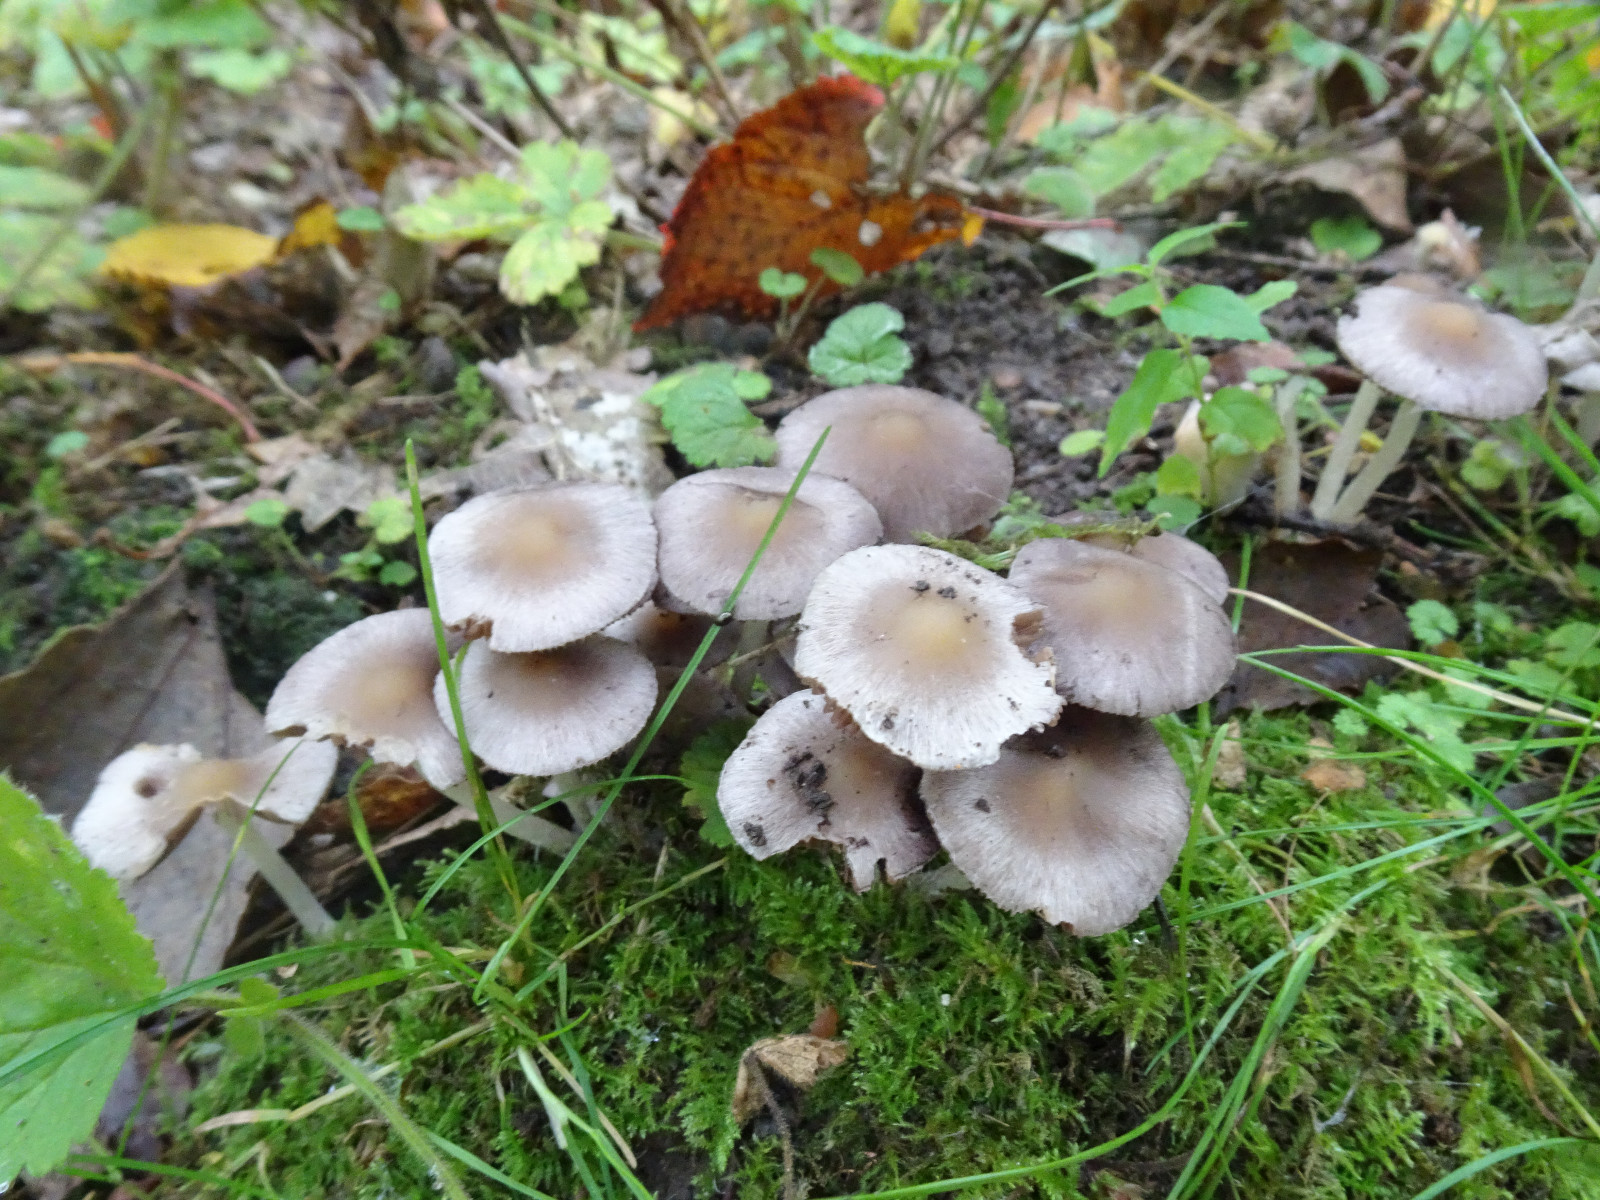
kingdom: Fungi
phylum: Basidiomycota
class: Agaricomycetes
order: Agaricales
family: Psathyrellaceae
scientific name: Psathyrellaceae
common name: mørkhatfamilien
